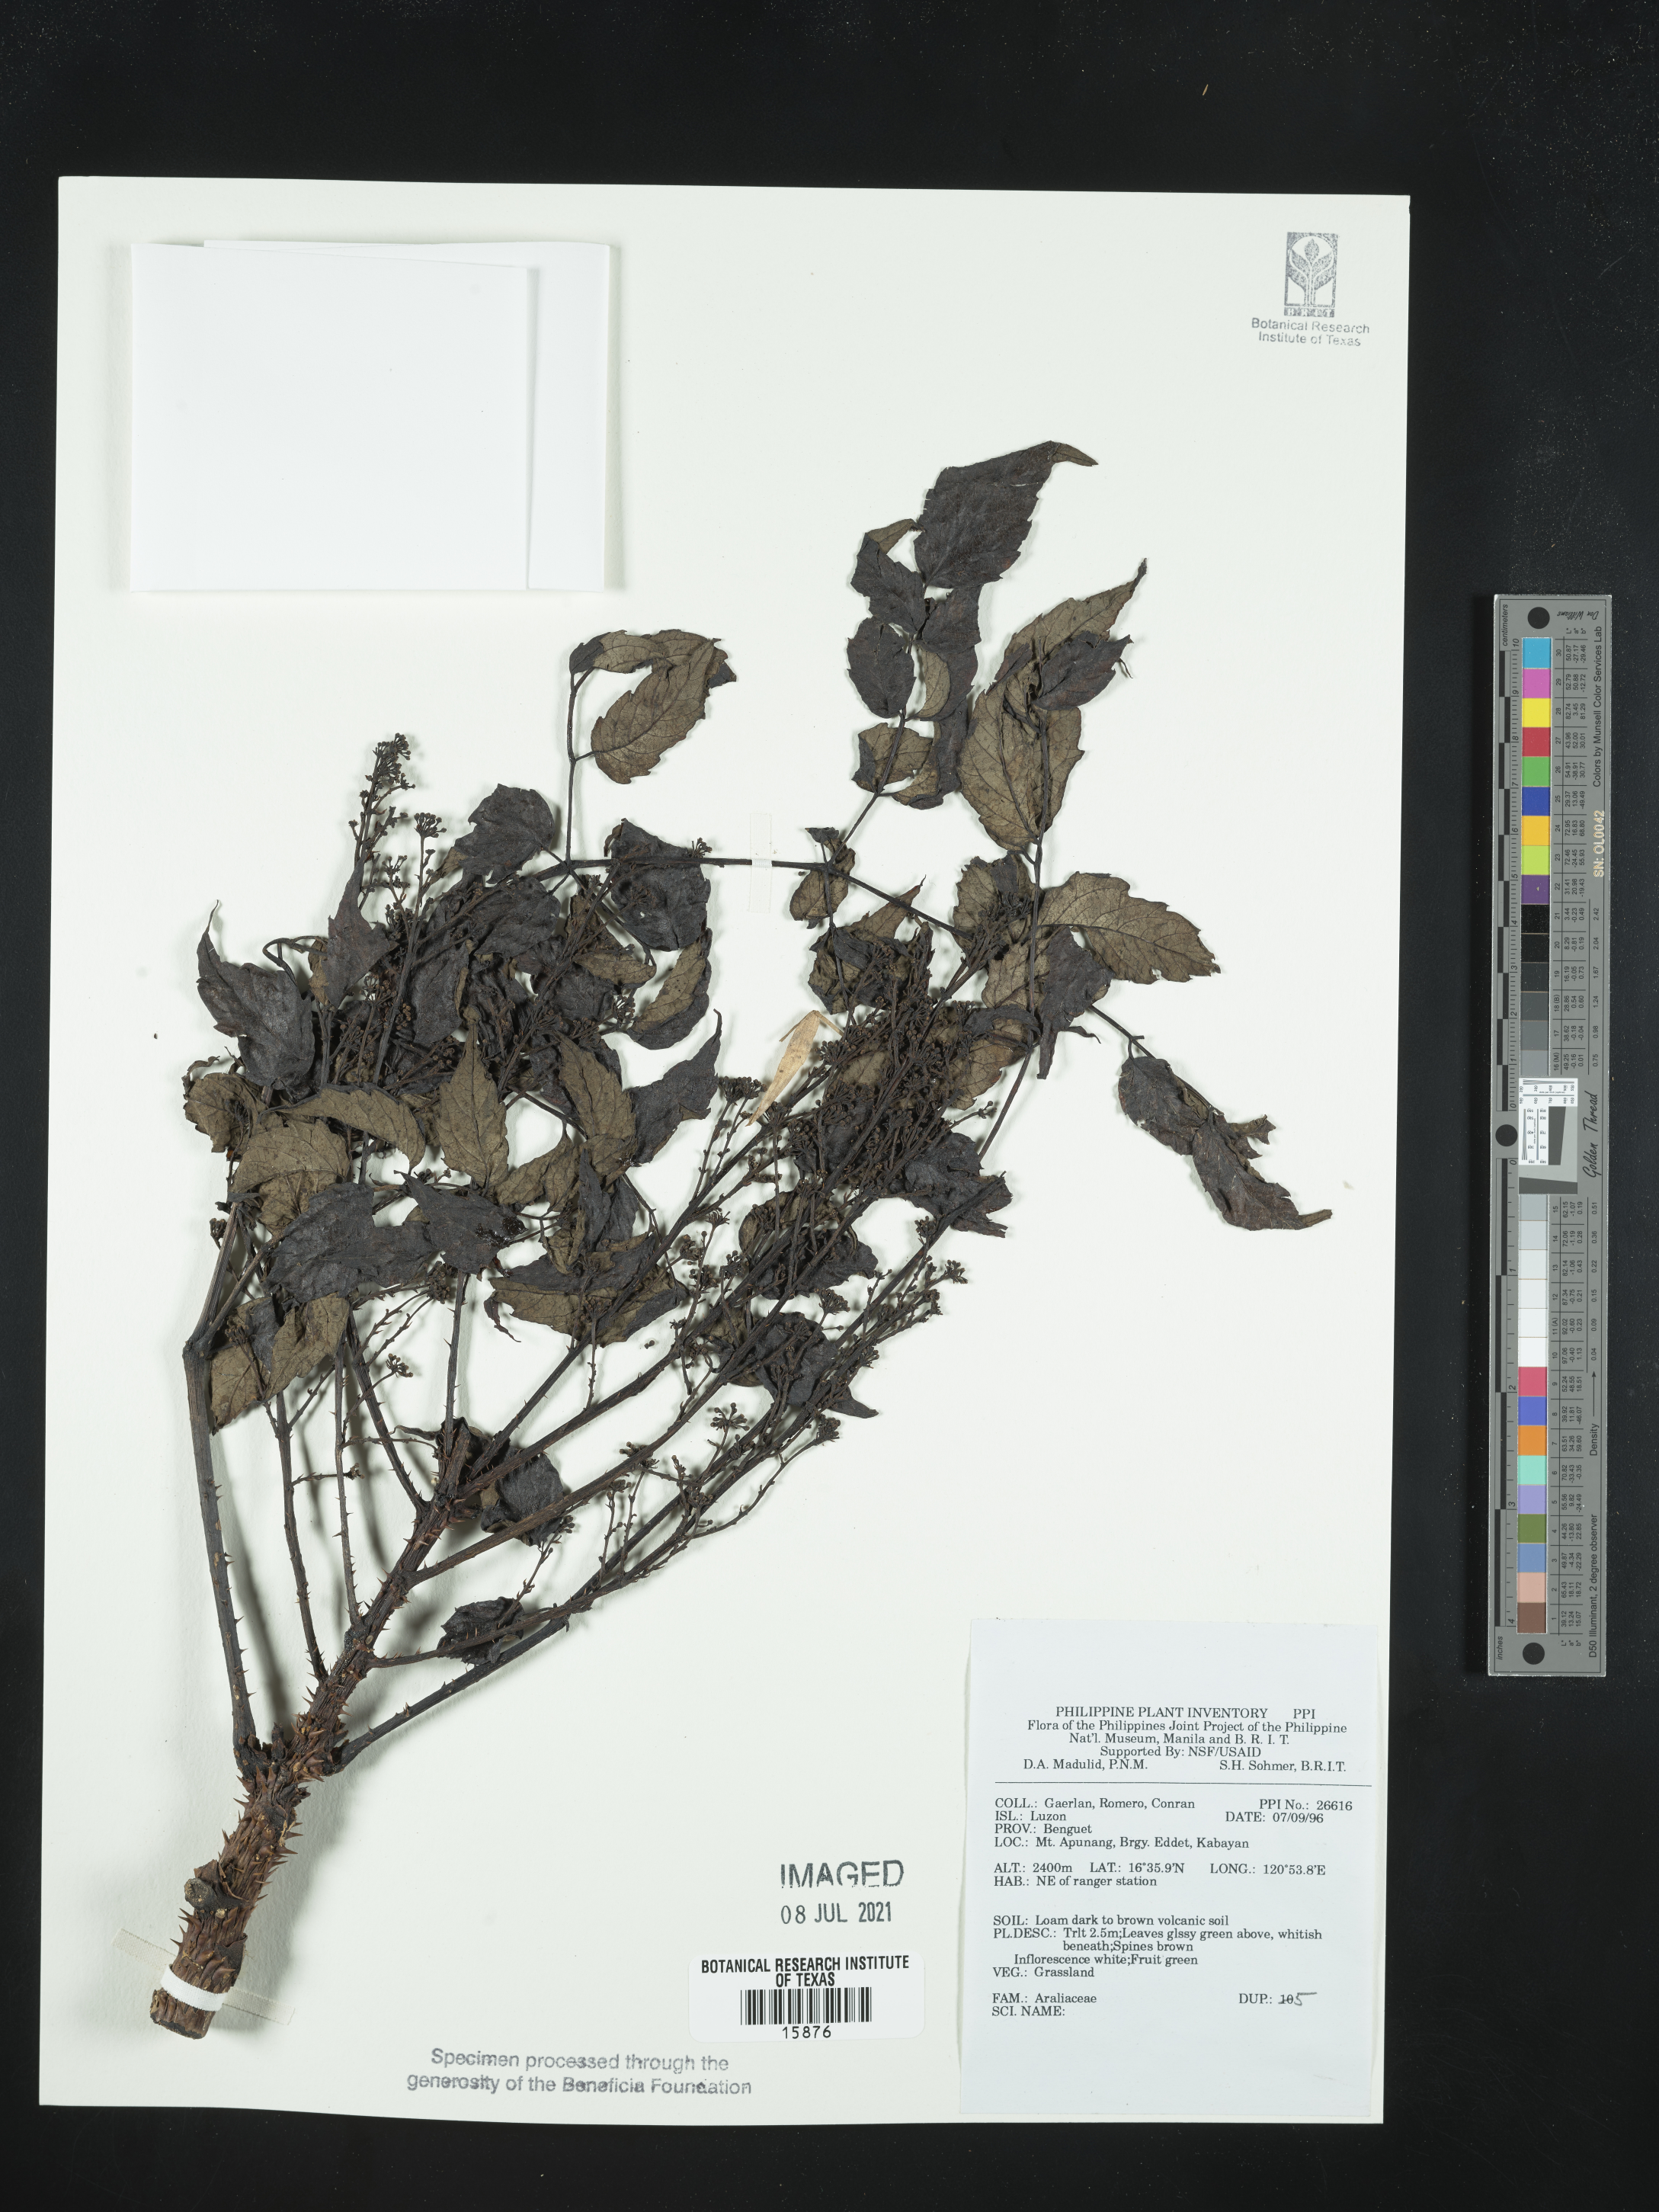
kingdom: Plantae
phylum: Tracheophyta
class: Magnoliopsida
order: Apiales
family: Araliaceae
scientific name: Araliaceae
